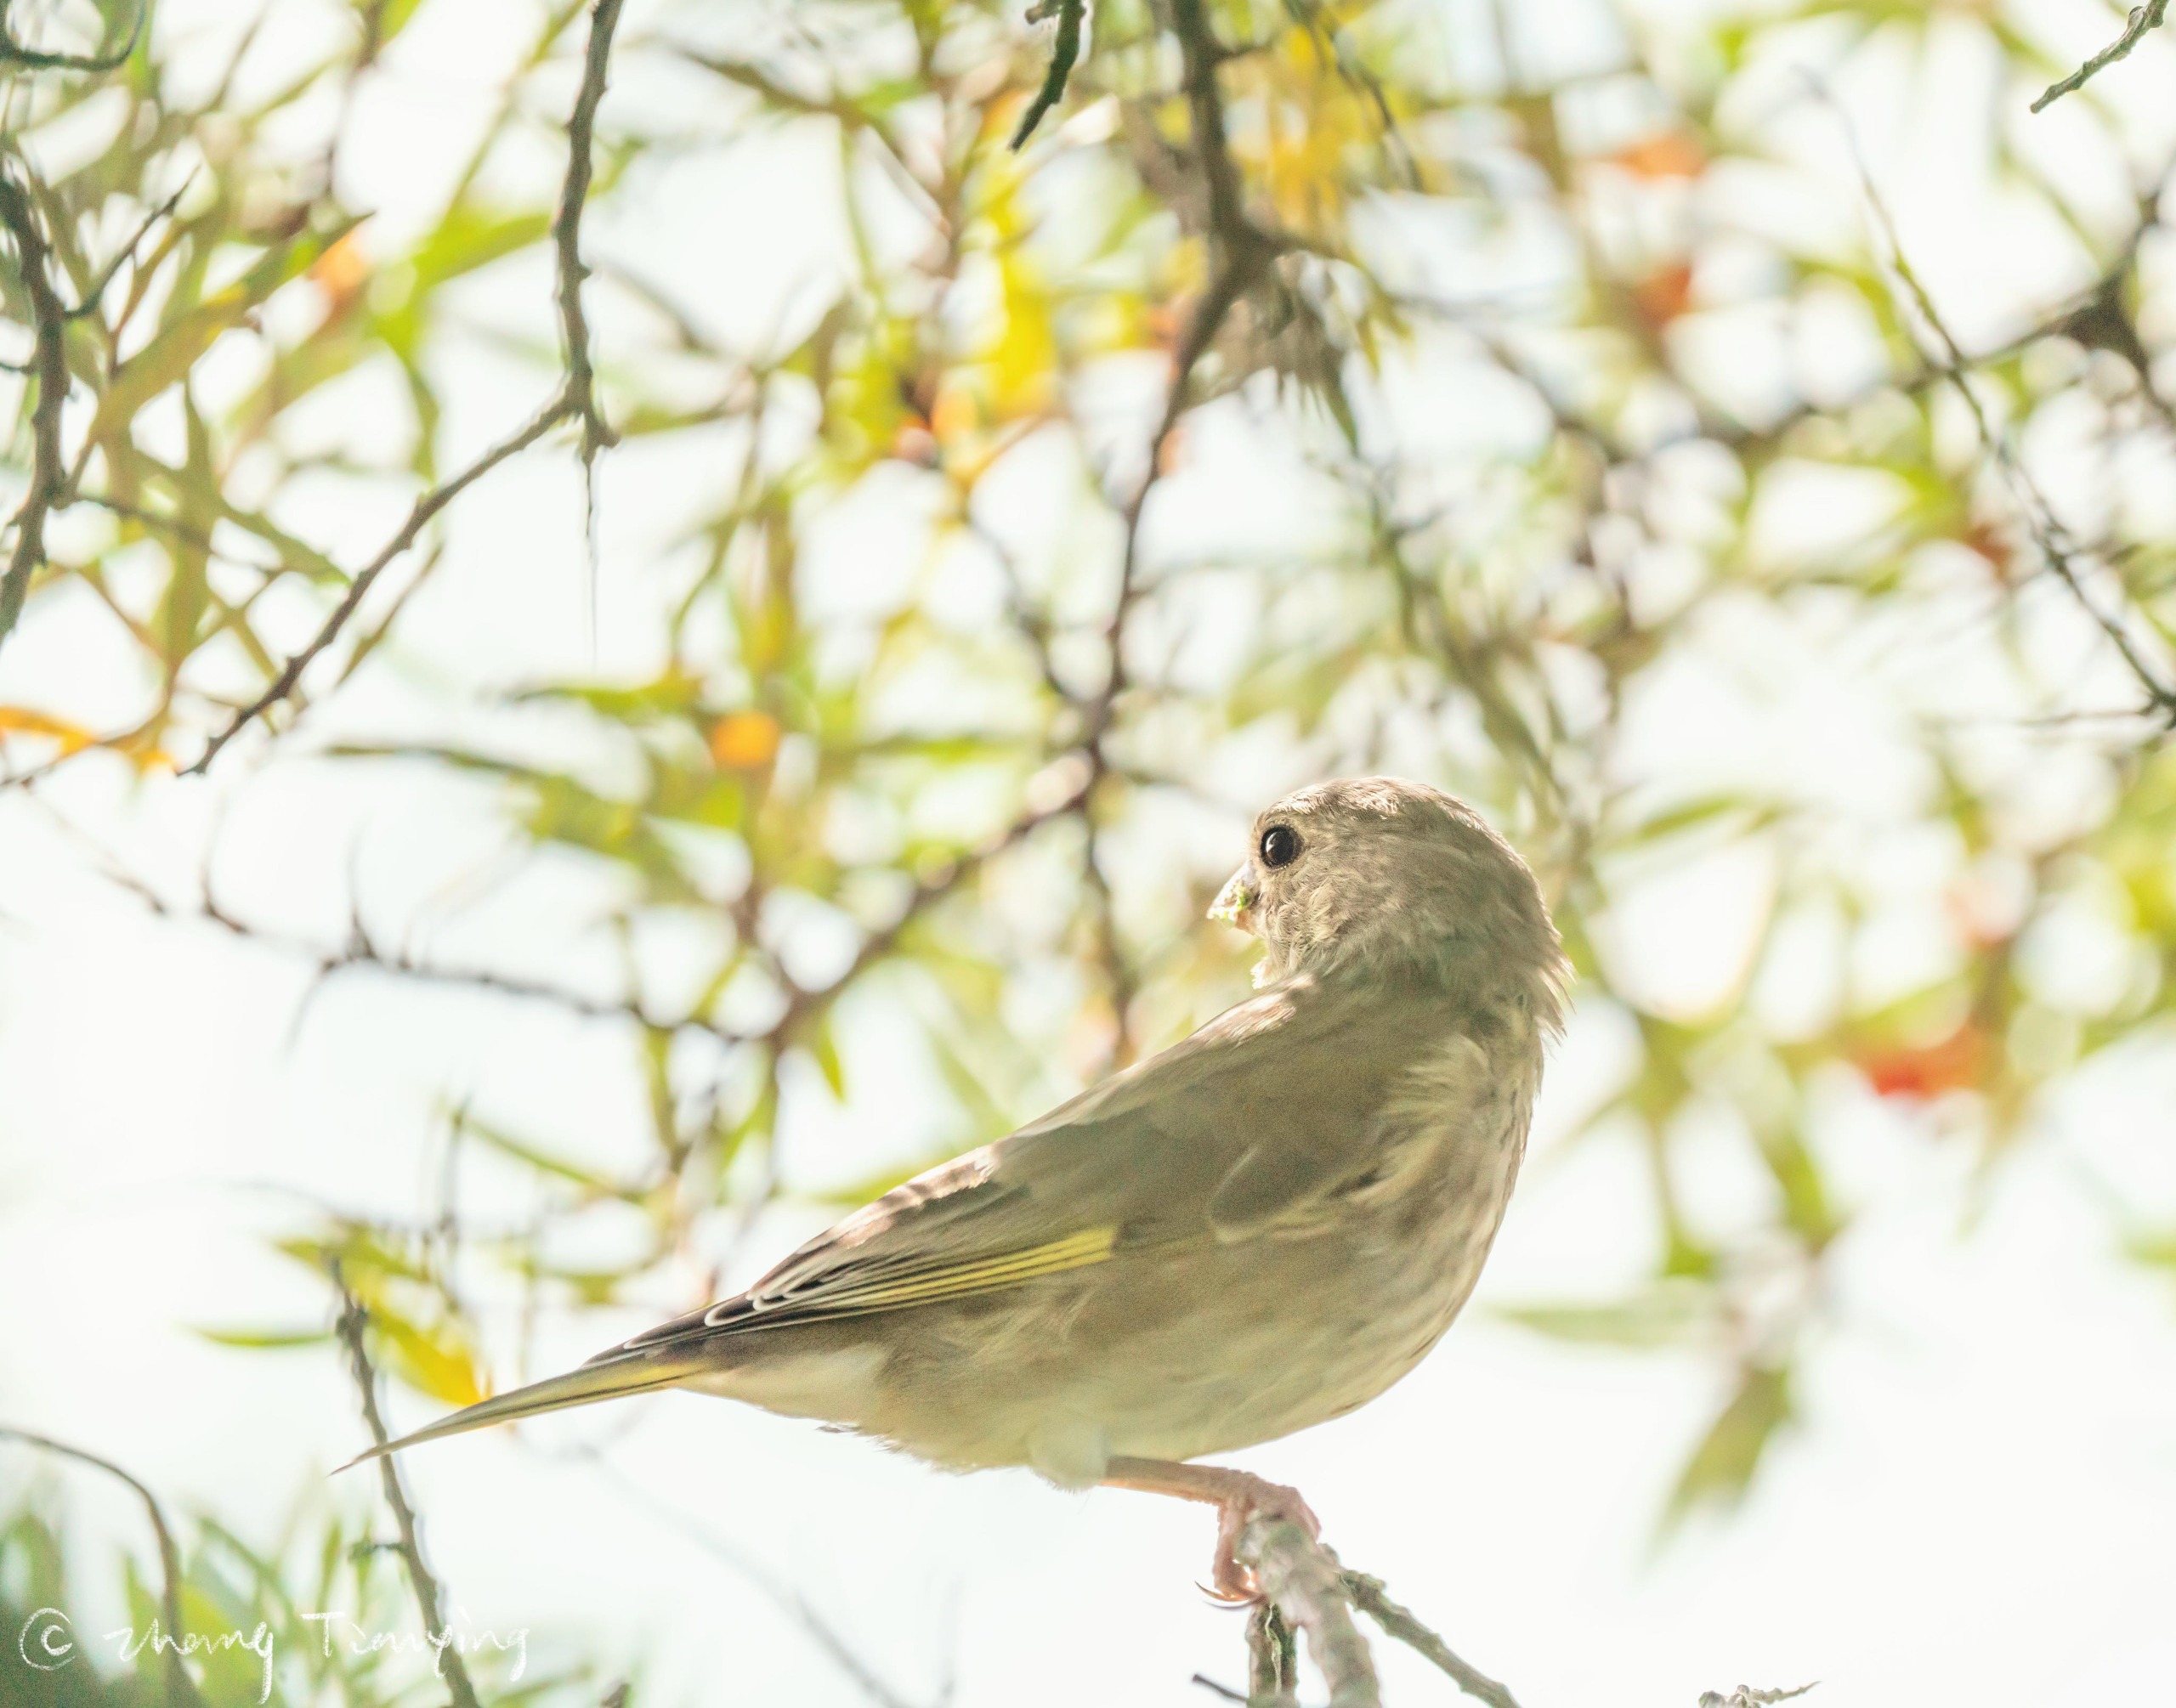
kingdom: Plantae
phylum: Tracheophyta
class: Liliopsida
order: Poales
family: Poaceae
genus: Chloris
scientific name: Chloris chloris
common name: Grønirisk
